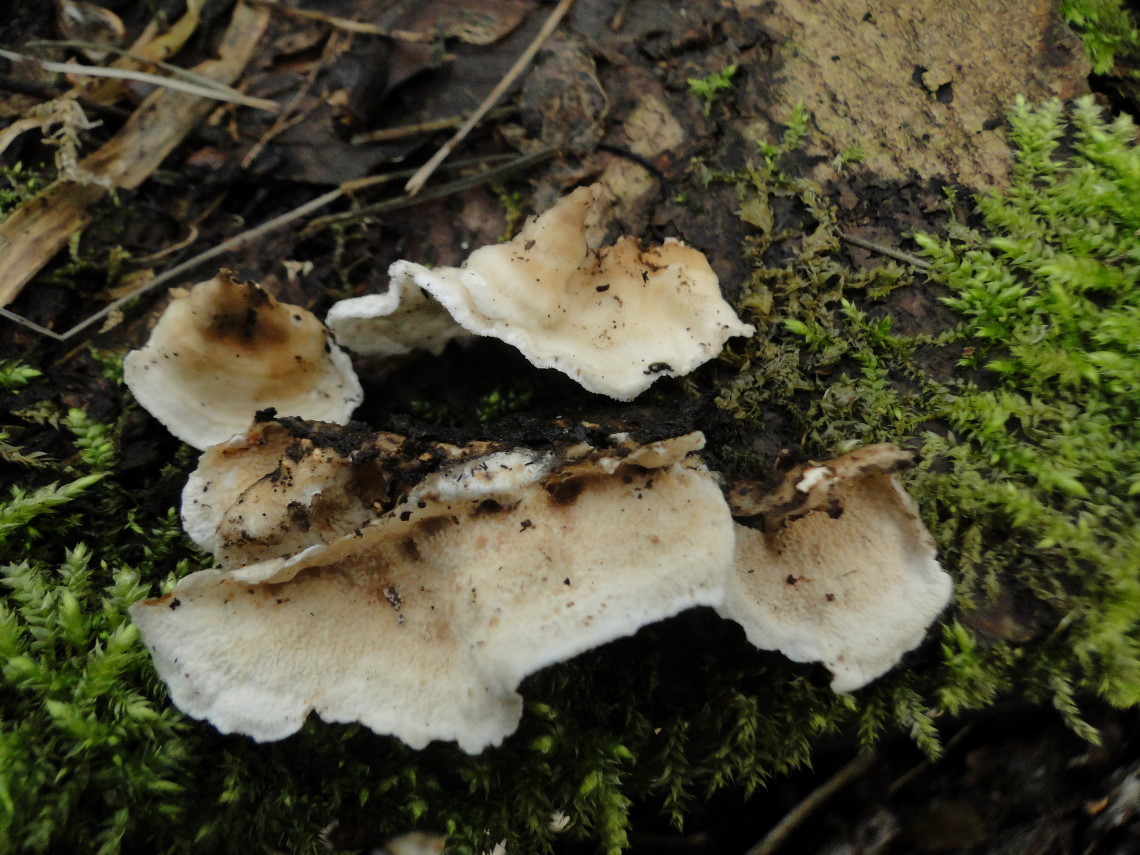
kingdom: Fungi
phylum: Basidiomycota
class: Agaricomycetes
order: Polyporales
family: Irpicaceae
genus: Byssomerulius
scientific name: Byssomerulius corium
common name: læder-åresvamp
